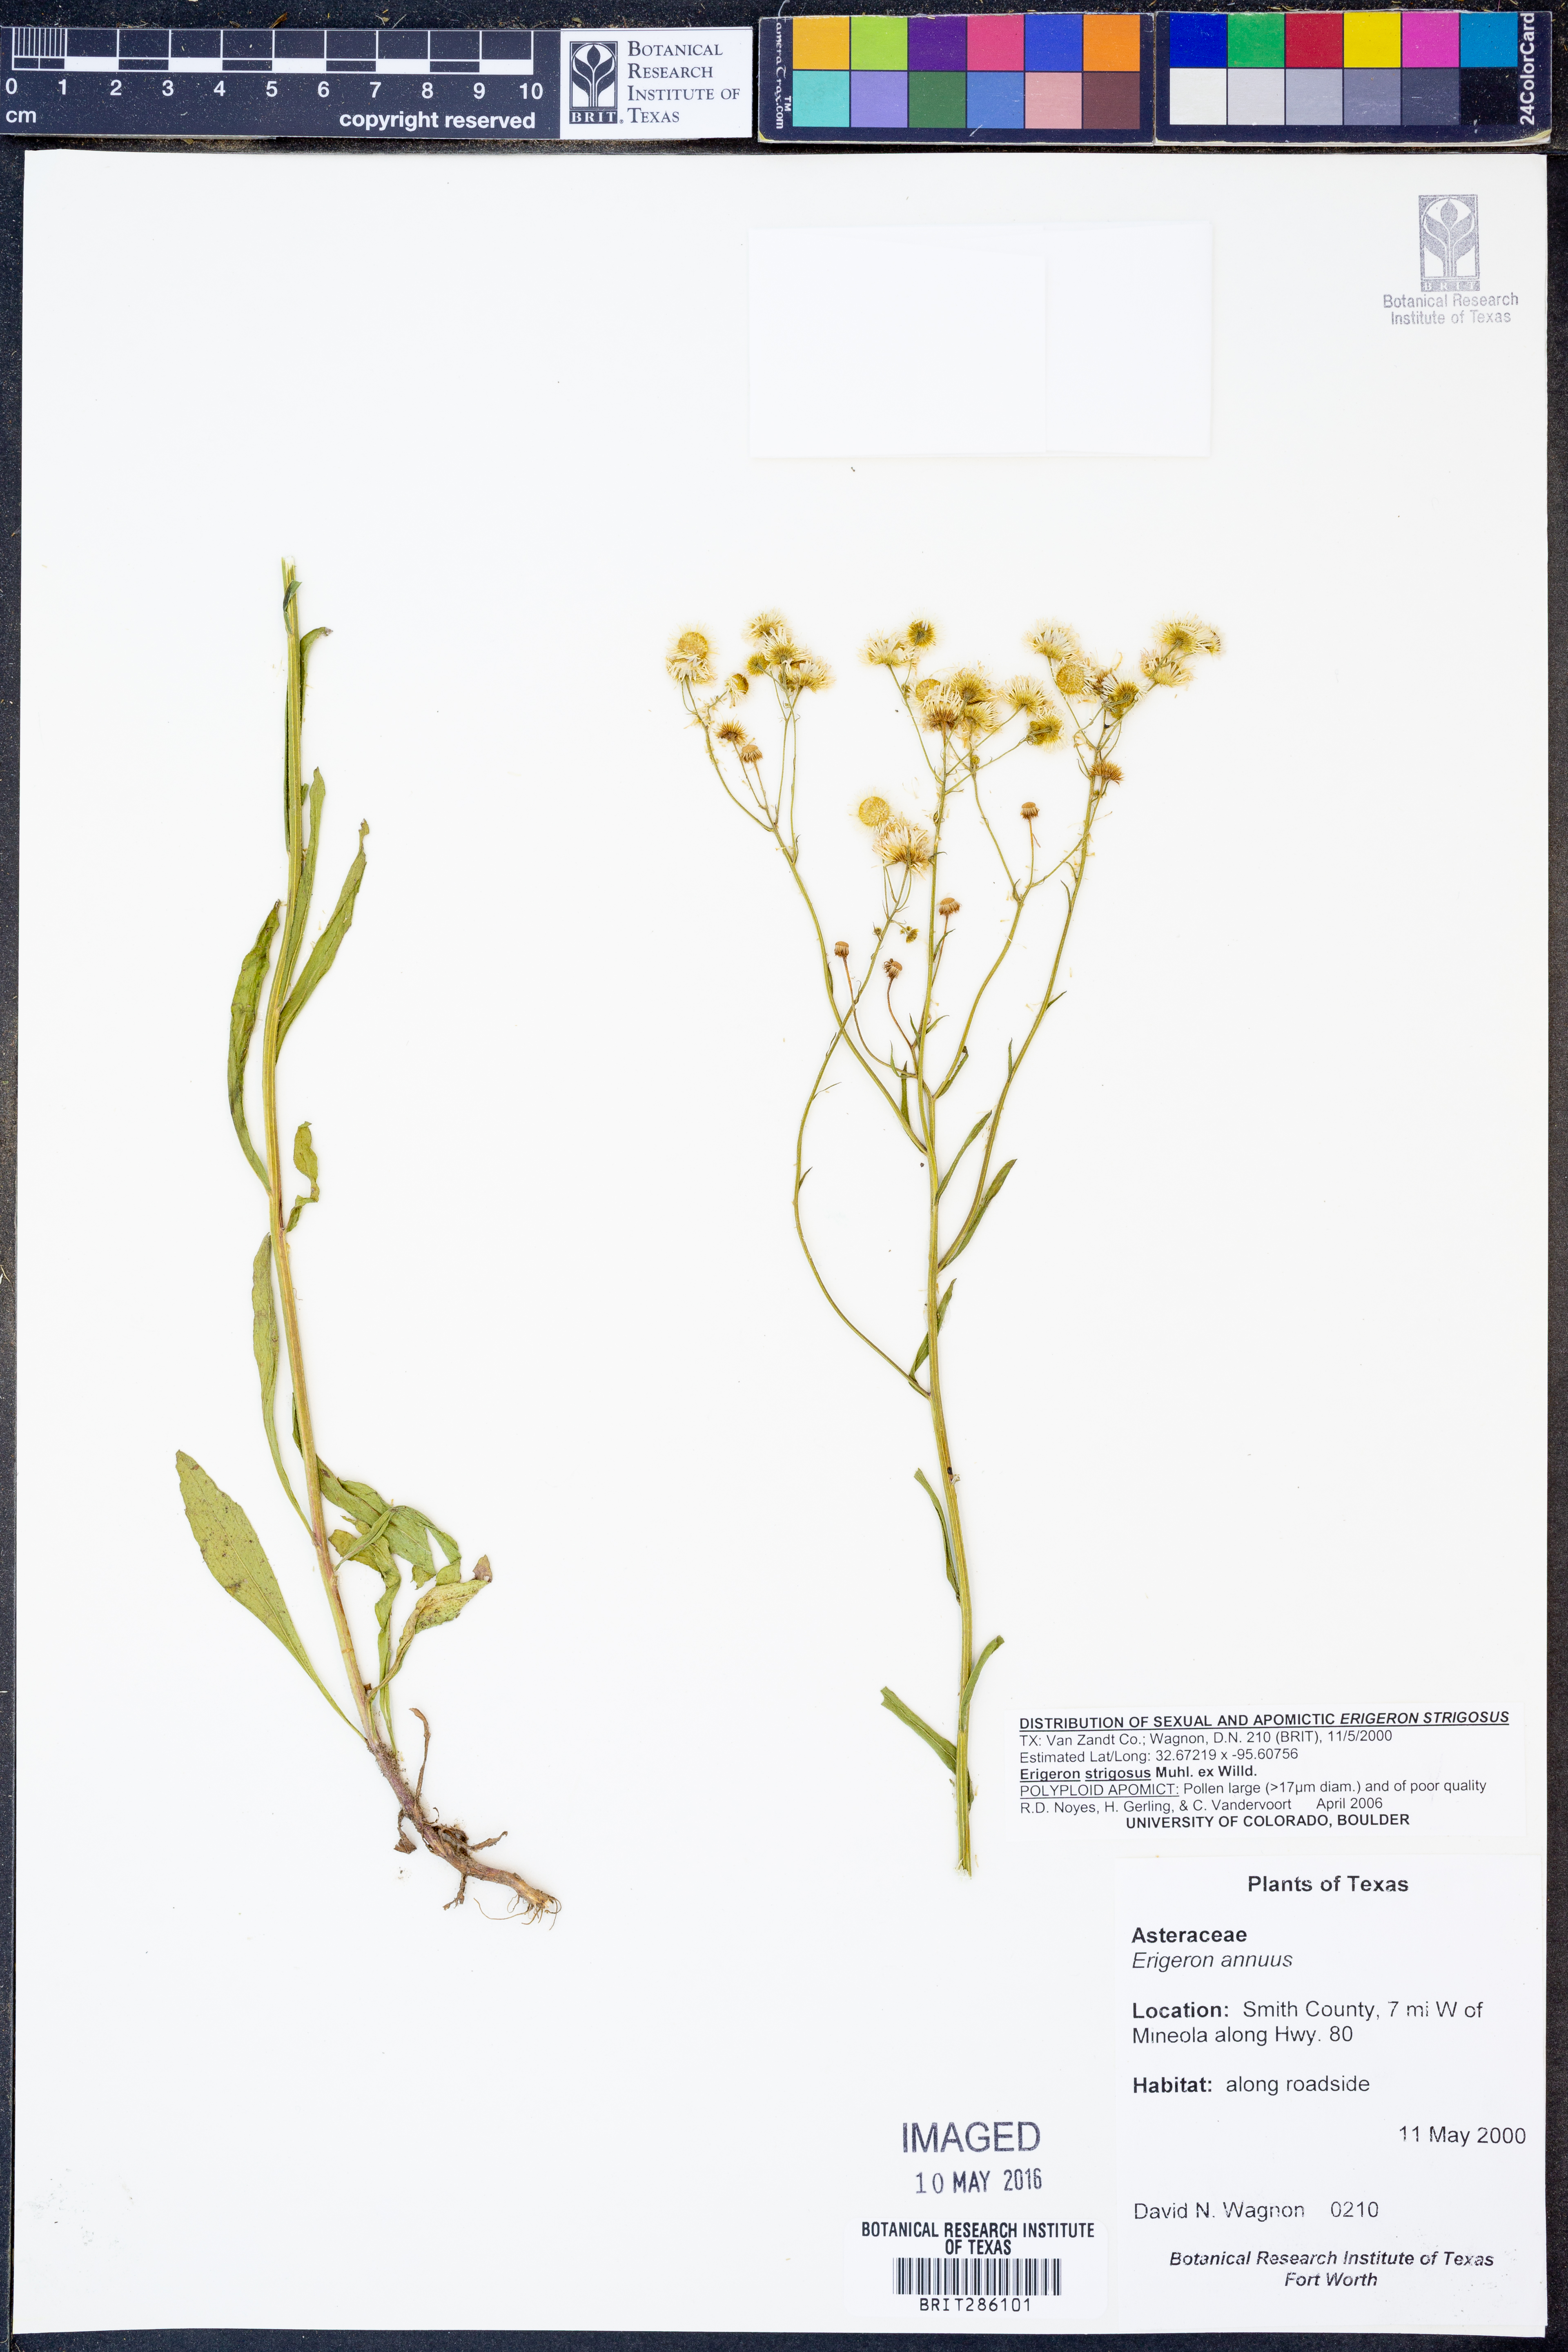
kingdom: Plantae
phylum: Tracheophyta
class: Magnoliopsida
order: Asterales
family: Asteraceae
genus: Erigeron
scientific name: Erigeron strigosus
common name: Common eastern fleabane
